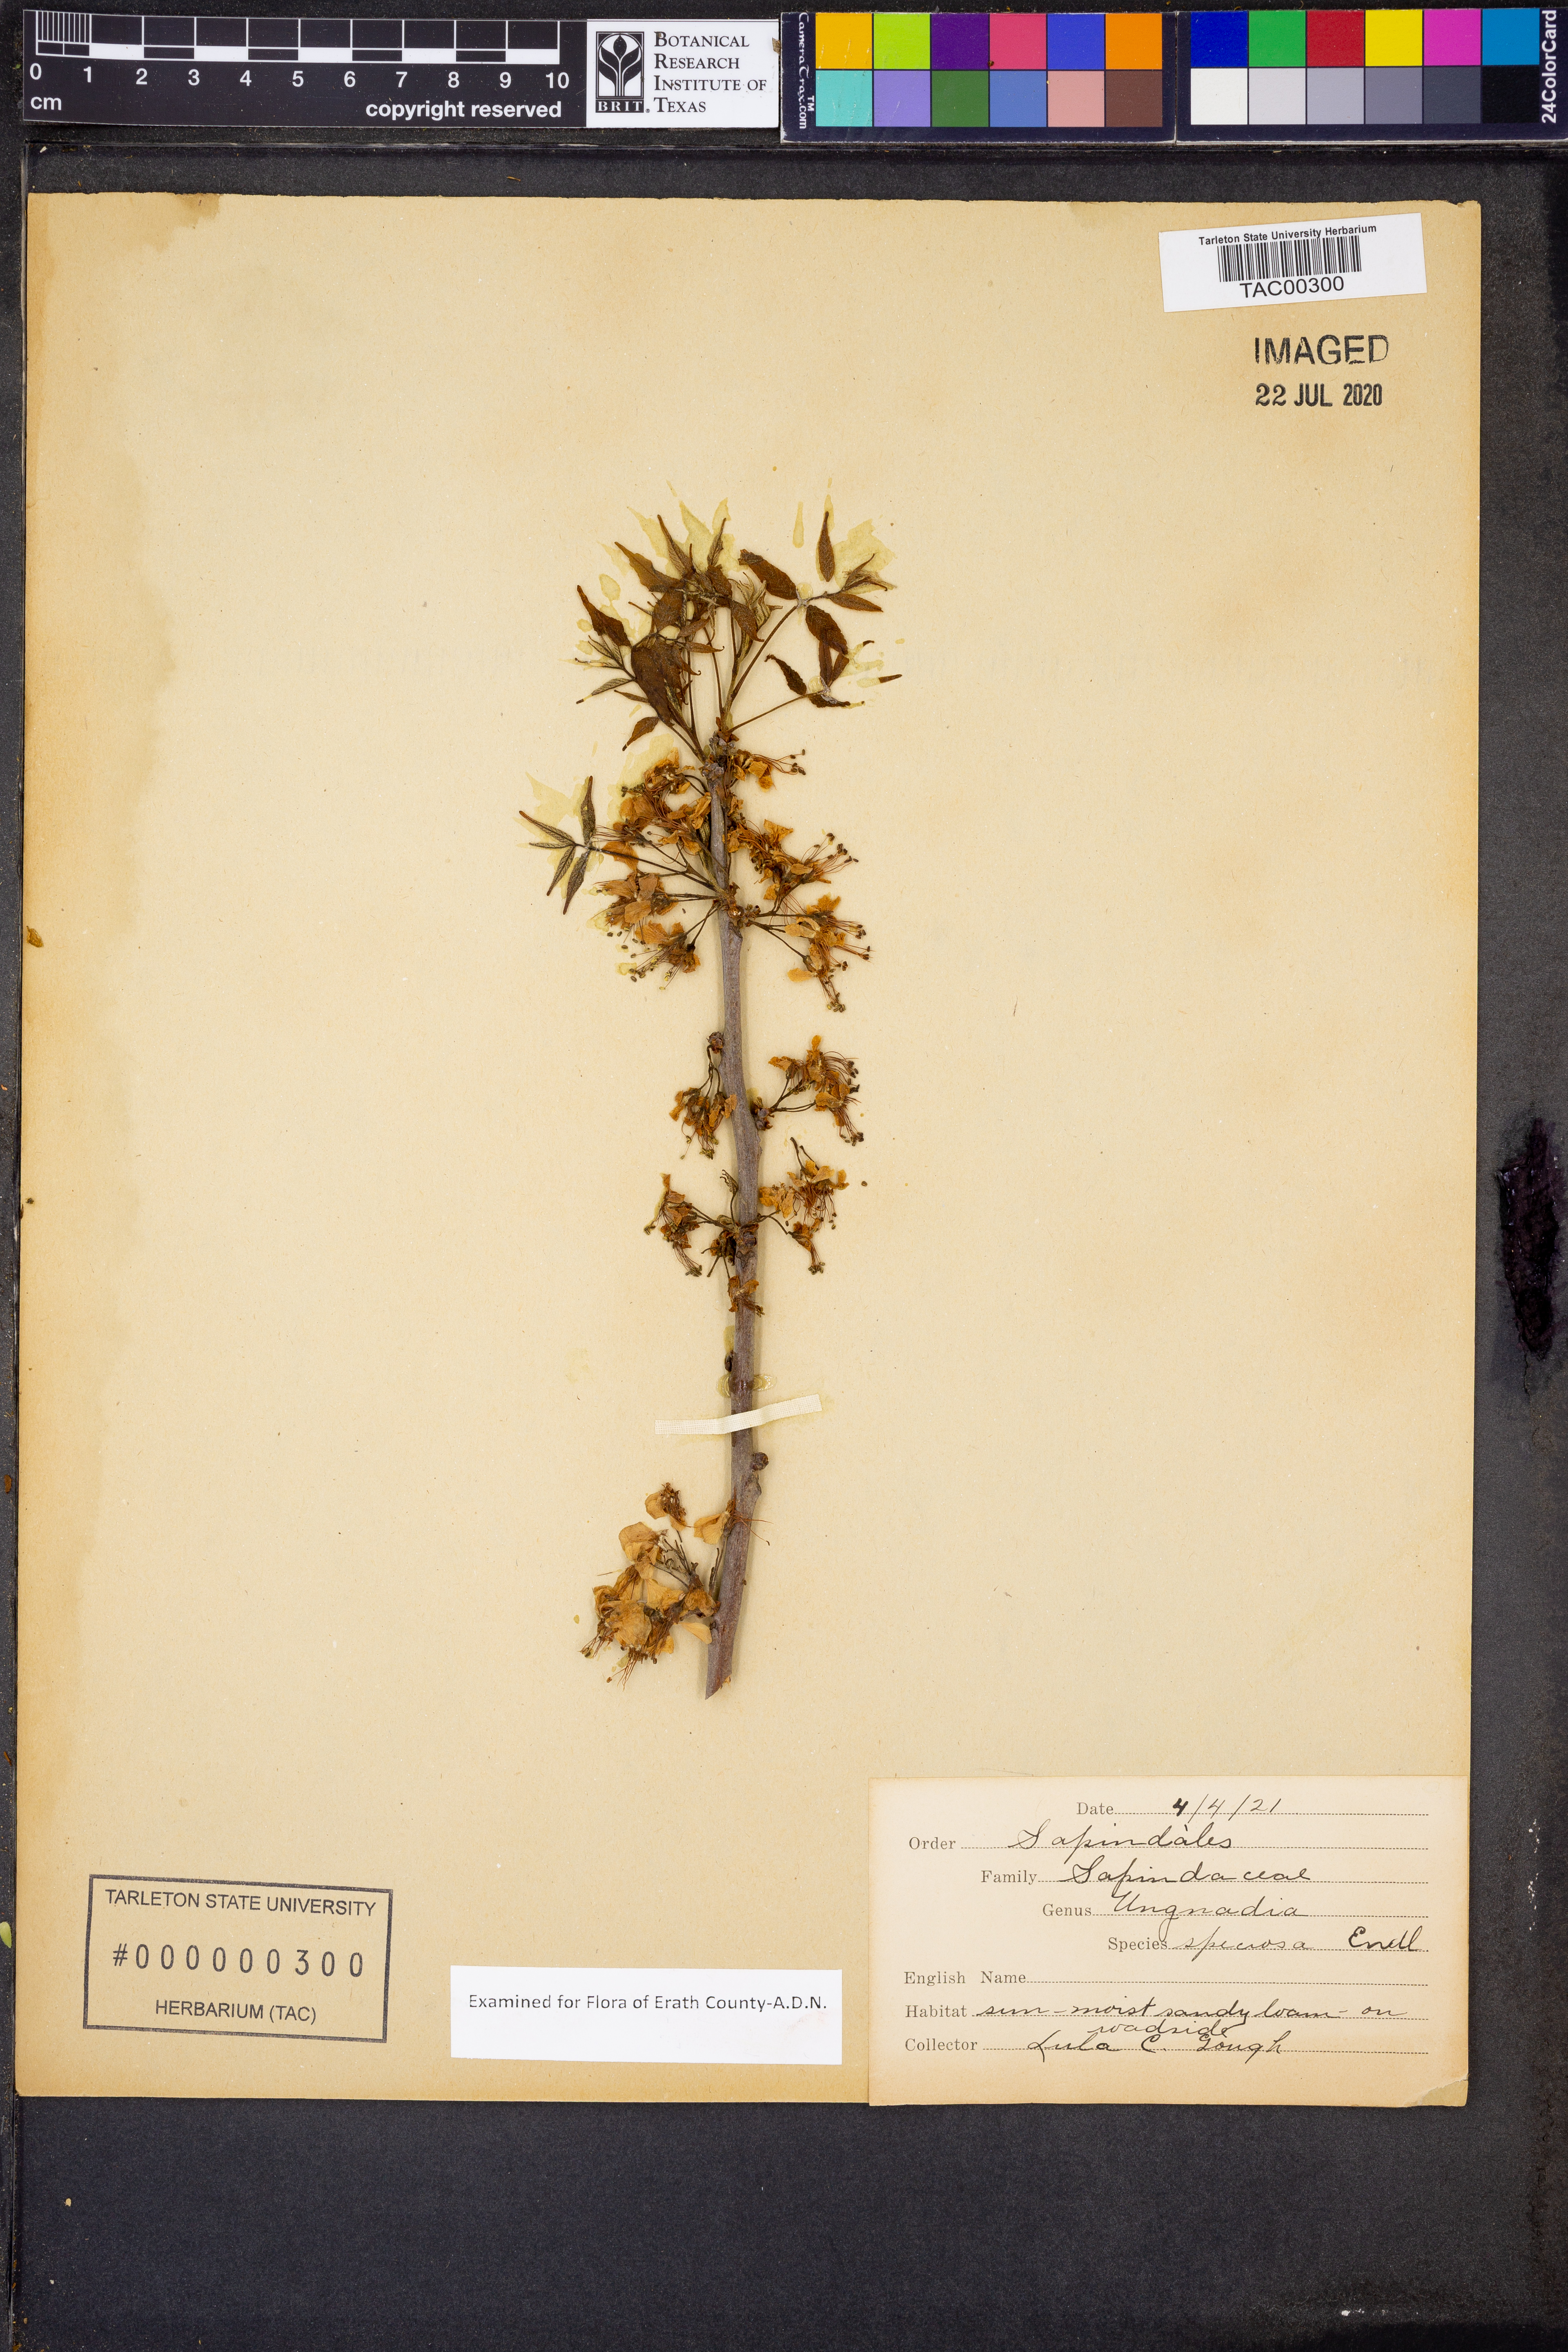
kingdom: Plantae
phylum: Tracheophyta
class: Magnoliopsida
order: Sapindales
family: Sapindaceae
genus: Ungnadia
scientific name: Ungnadia speciosa
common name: Texas-buckeye
